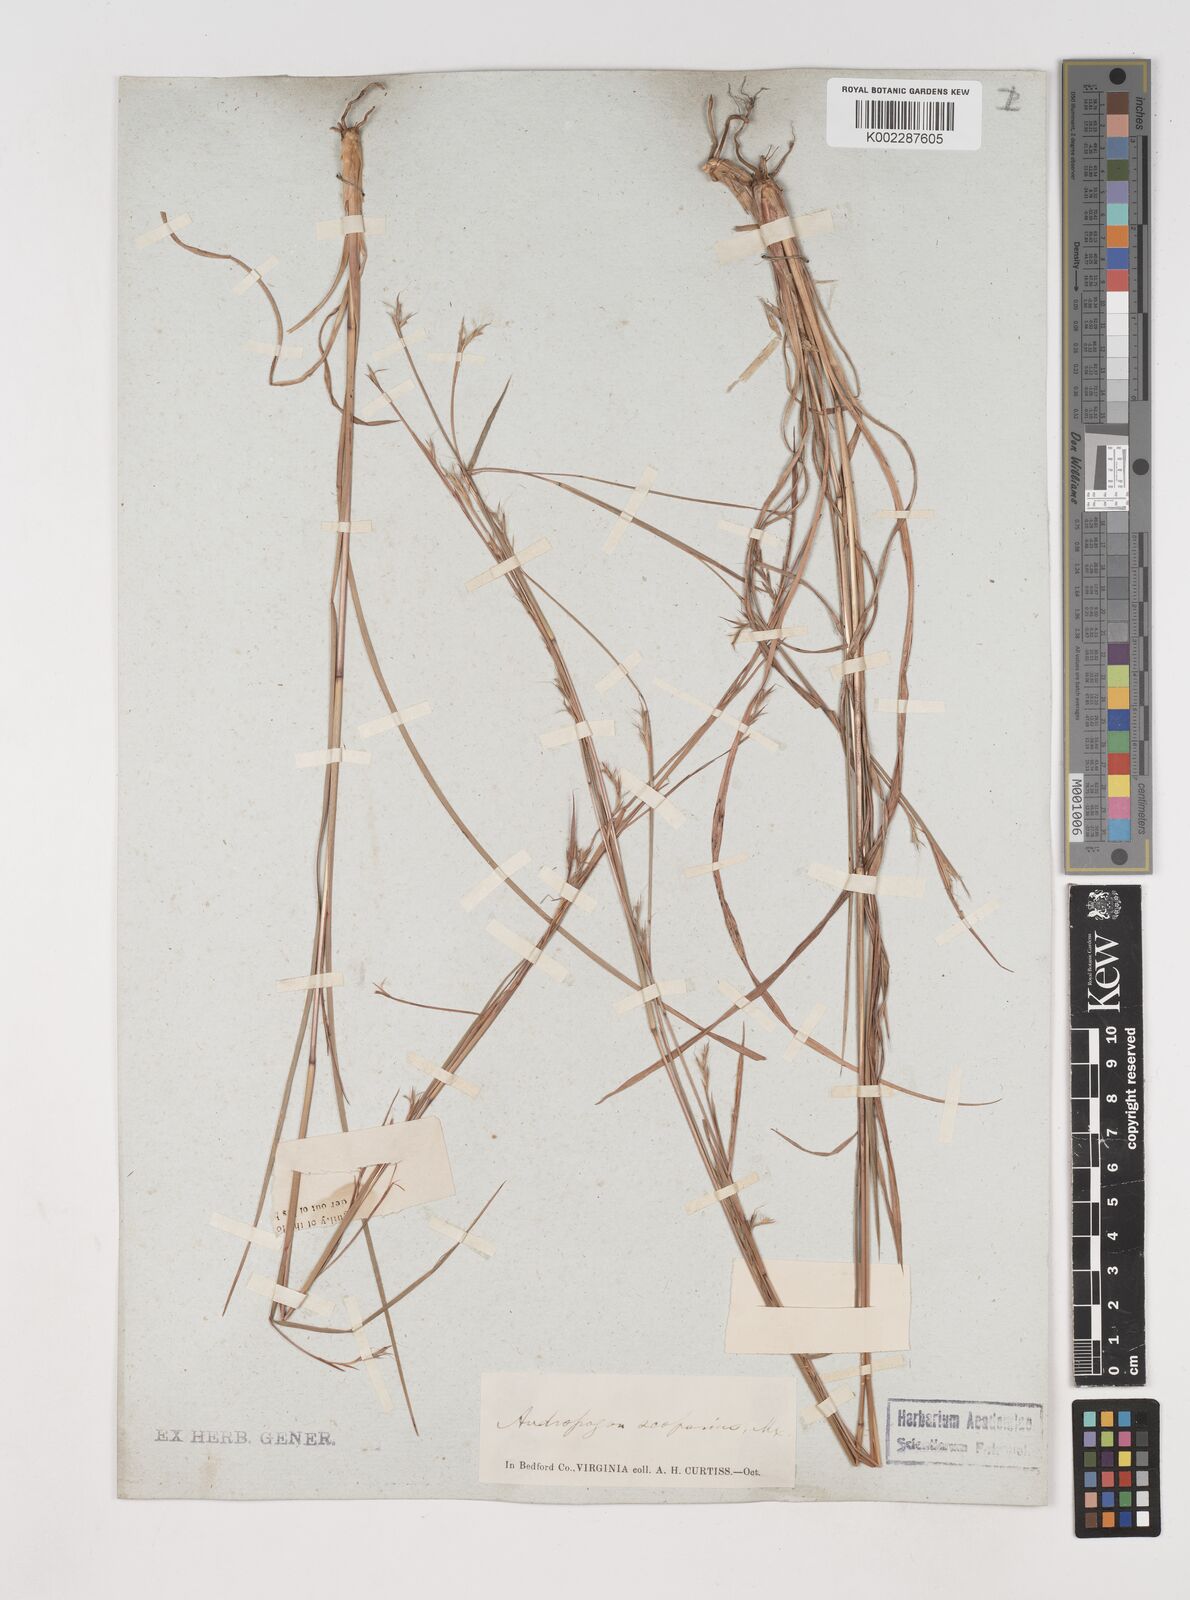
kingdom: Plantae
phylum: Tracheophyta
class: Liliopsida
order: Poales
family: Poaceae
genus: Schizachyrium
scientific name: Schizachyrium scoparium
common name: Little bluestem
